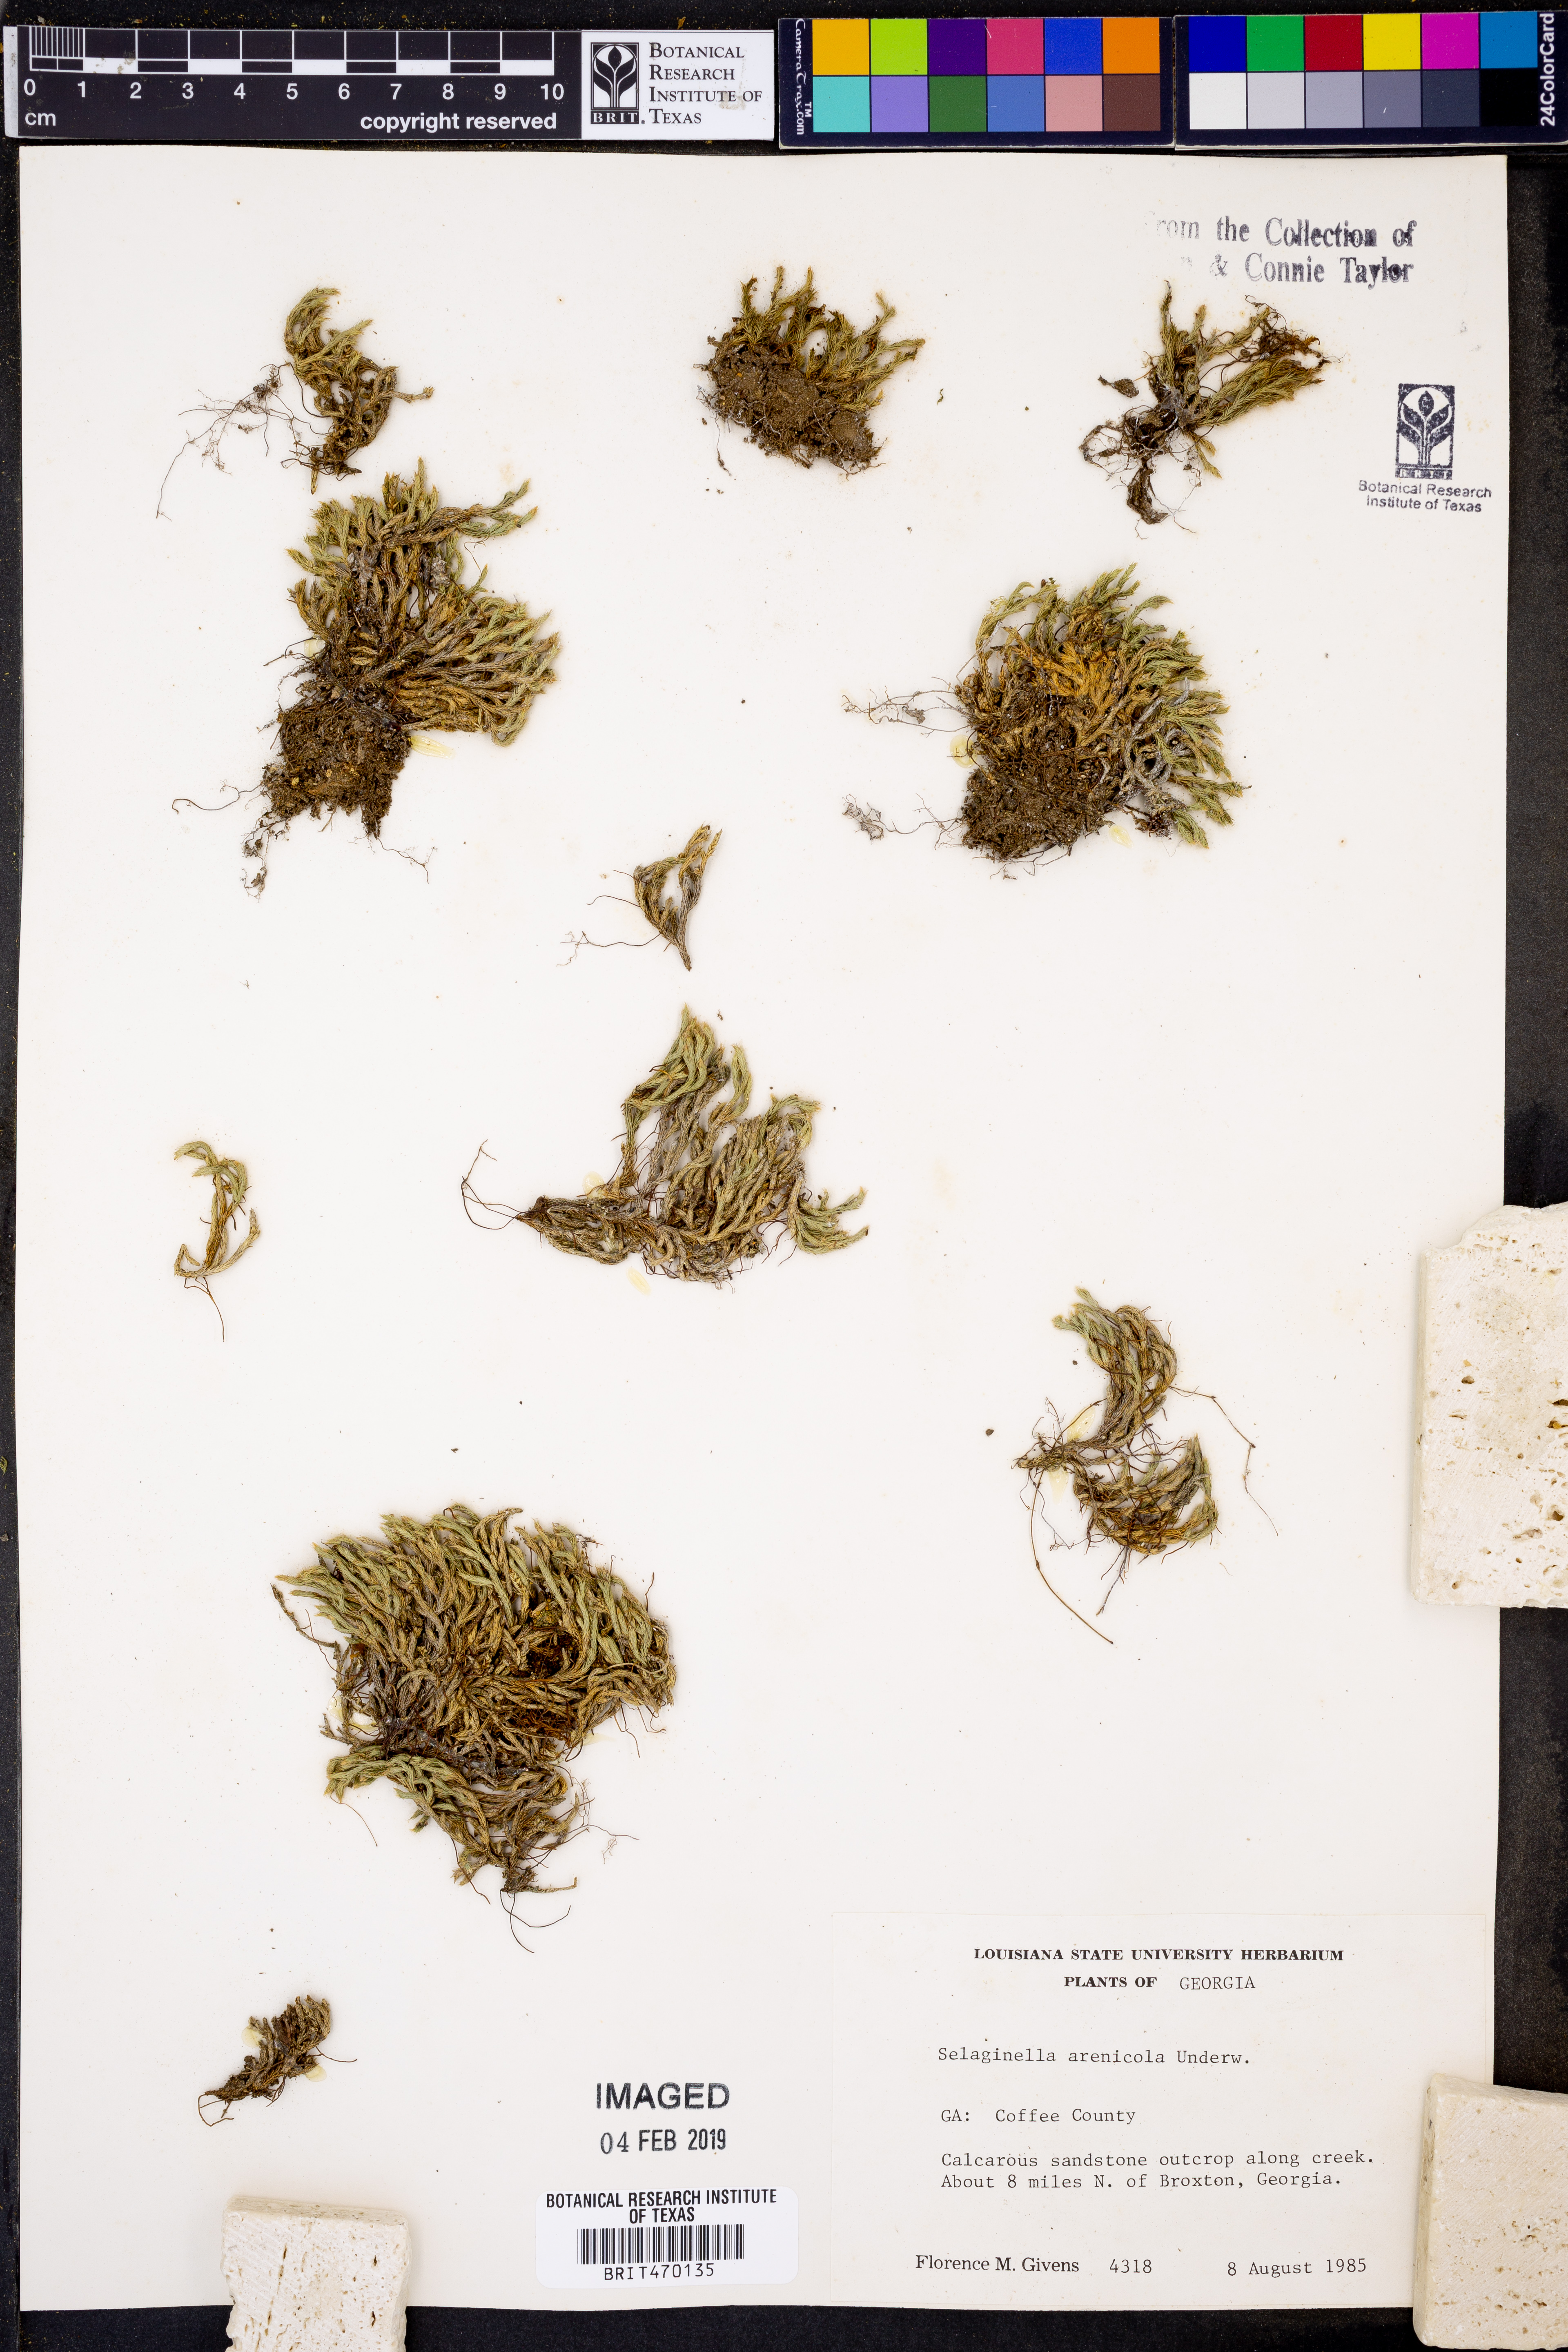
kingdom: Plantae
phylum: Tracheophyta
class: Lycopodiopsida
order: Selaginellales
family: Selaginellaceae
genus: Selaginella
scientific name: Selaginella arenicola
